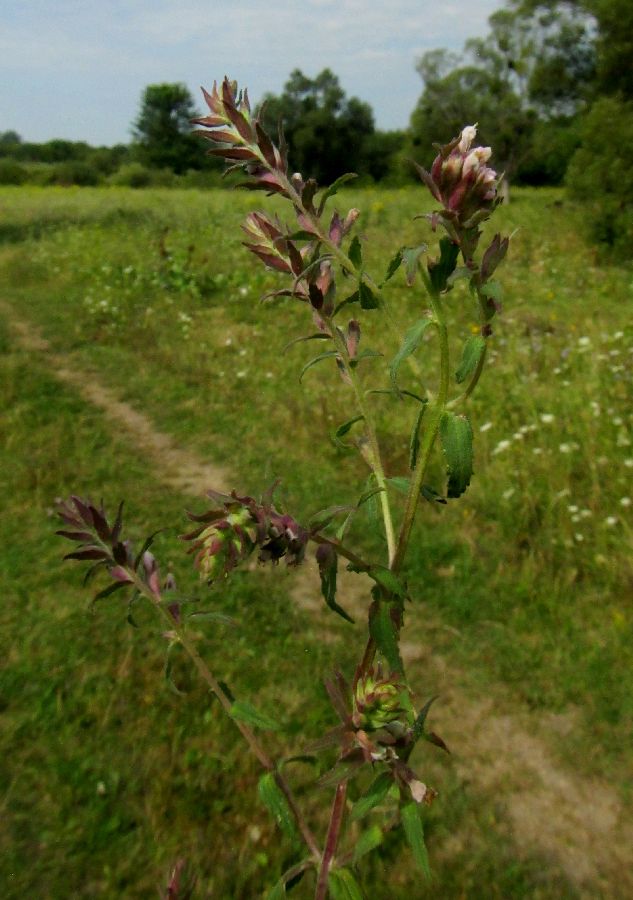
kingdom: Plantae
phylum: Tracheophyta
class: Magnoliopsida
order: Lamiales
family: Orobanchaceae
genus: Odontites
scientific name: Odontites vulgaris
